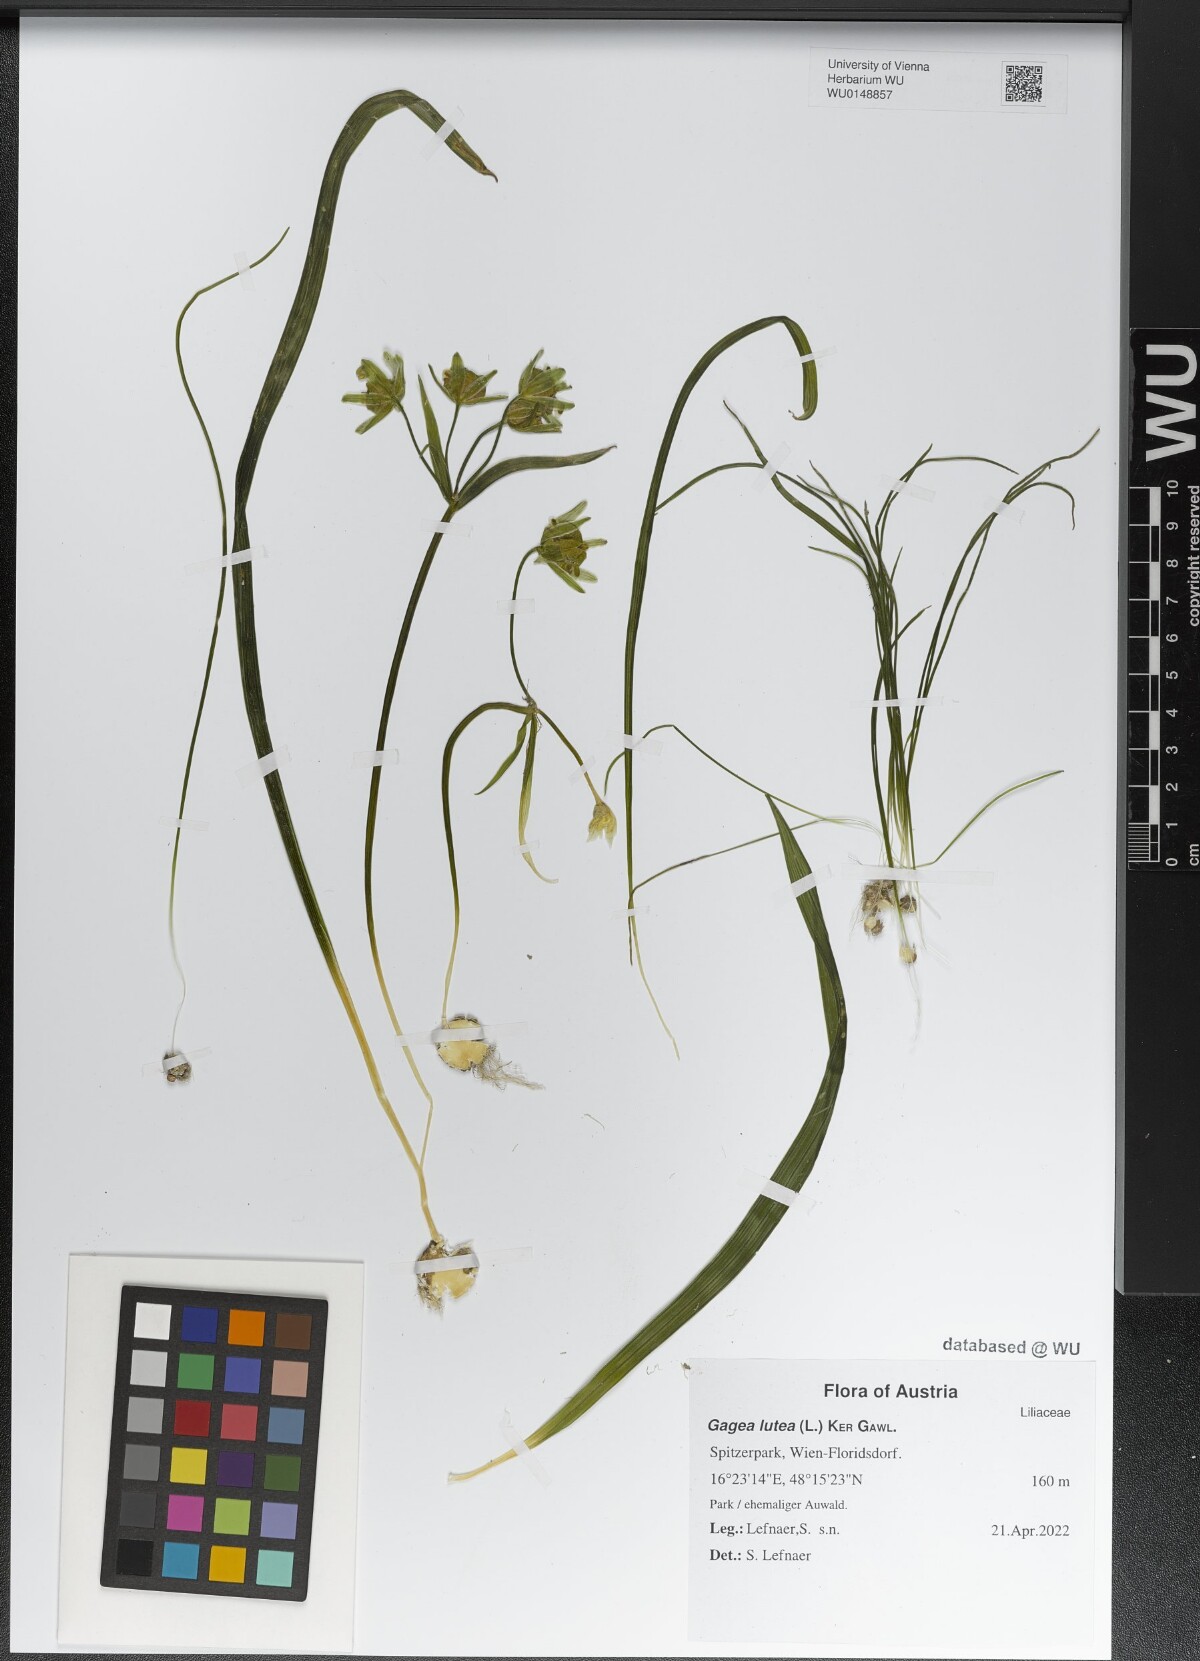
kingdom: Plantae
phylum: Tracheophyta
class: Liliopsida
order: Liliales
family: Liliaceae
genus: Gagea
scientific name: Gagea lutea
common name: Yellow star-of-bethlehem
